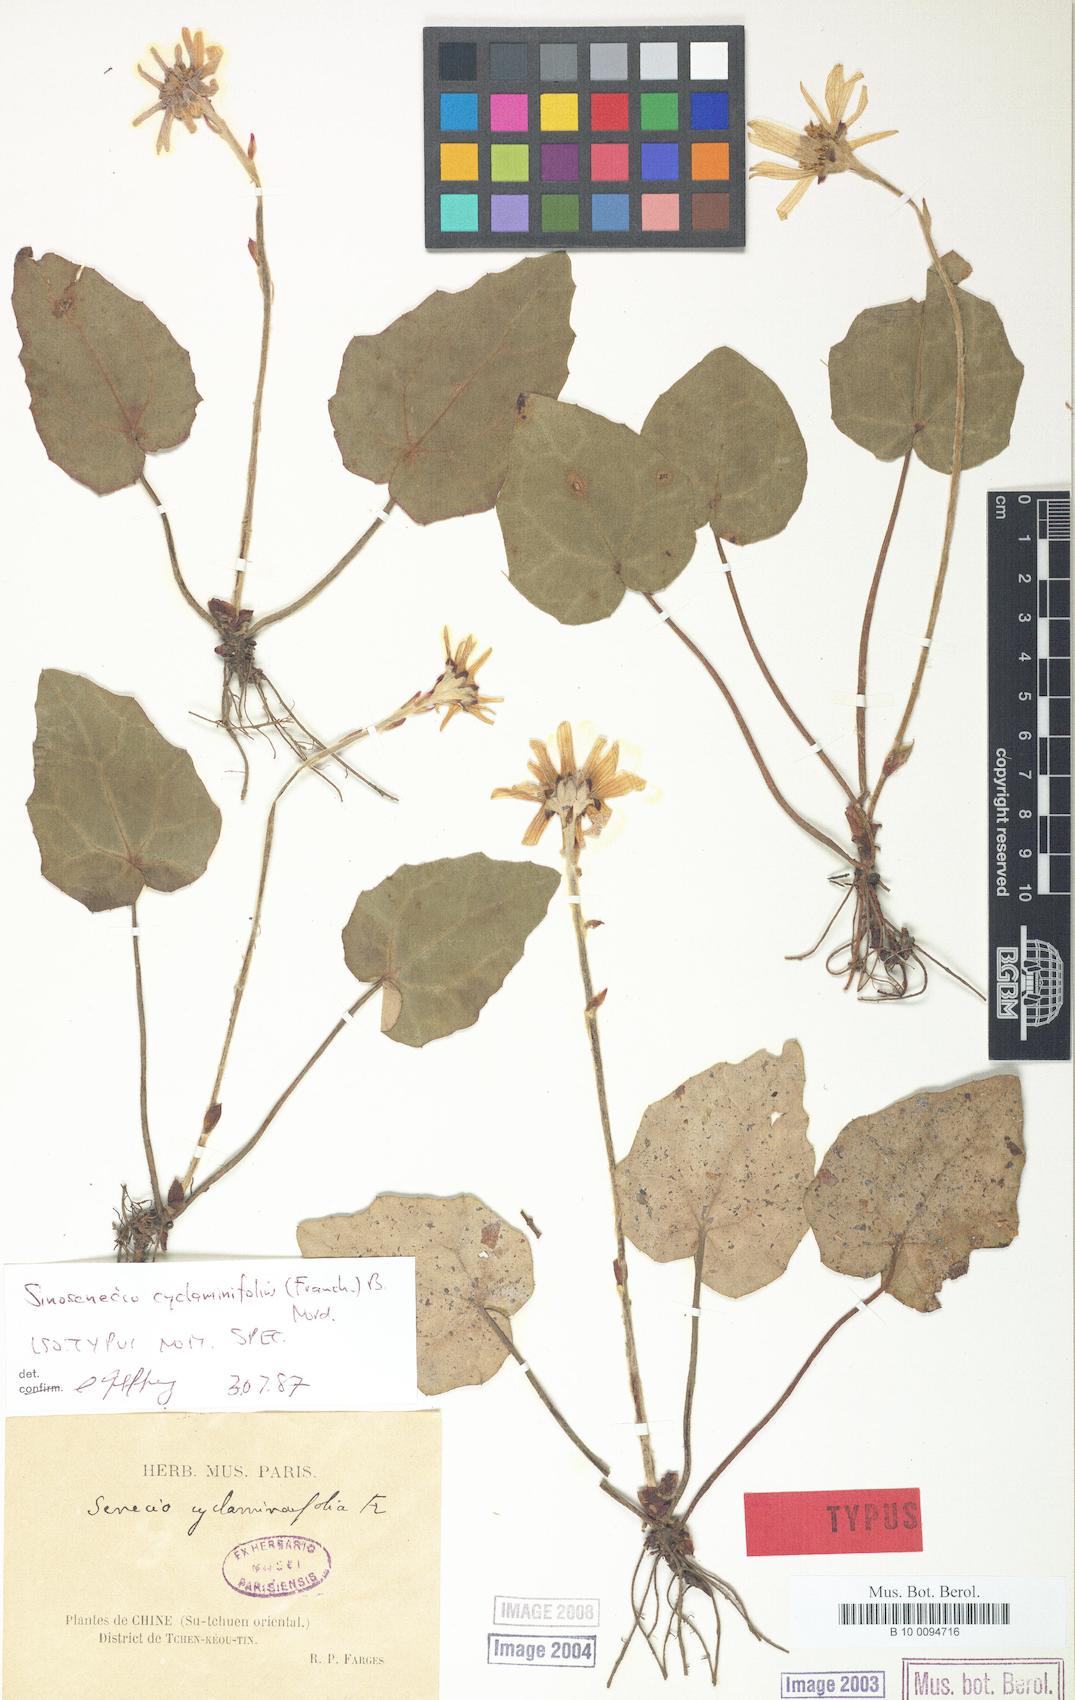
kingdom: Plantae
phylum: Tracheophyta
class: Magnoliopsida
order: Asterales
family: Asteraceae
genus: Sinosenecio
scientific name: Sinosenecio cyclaminifolius
